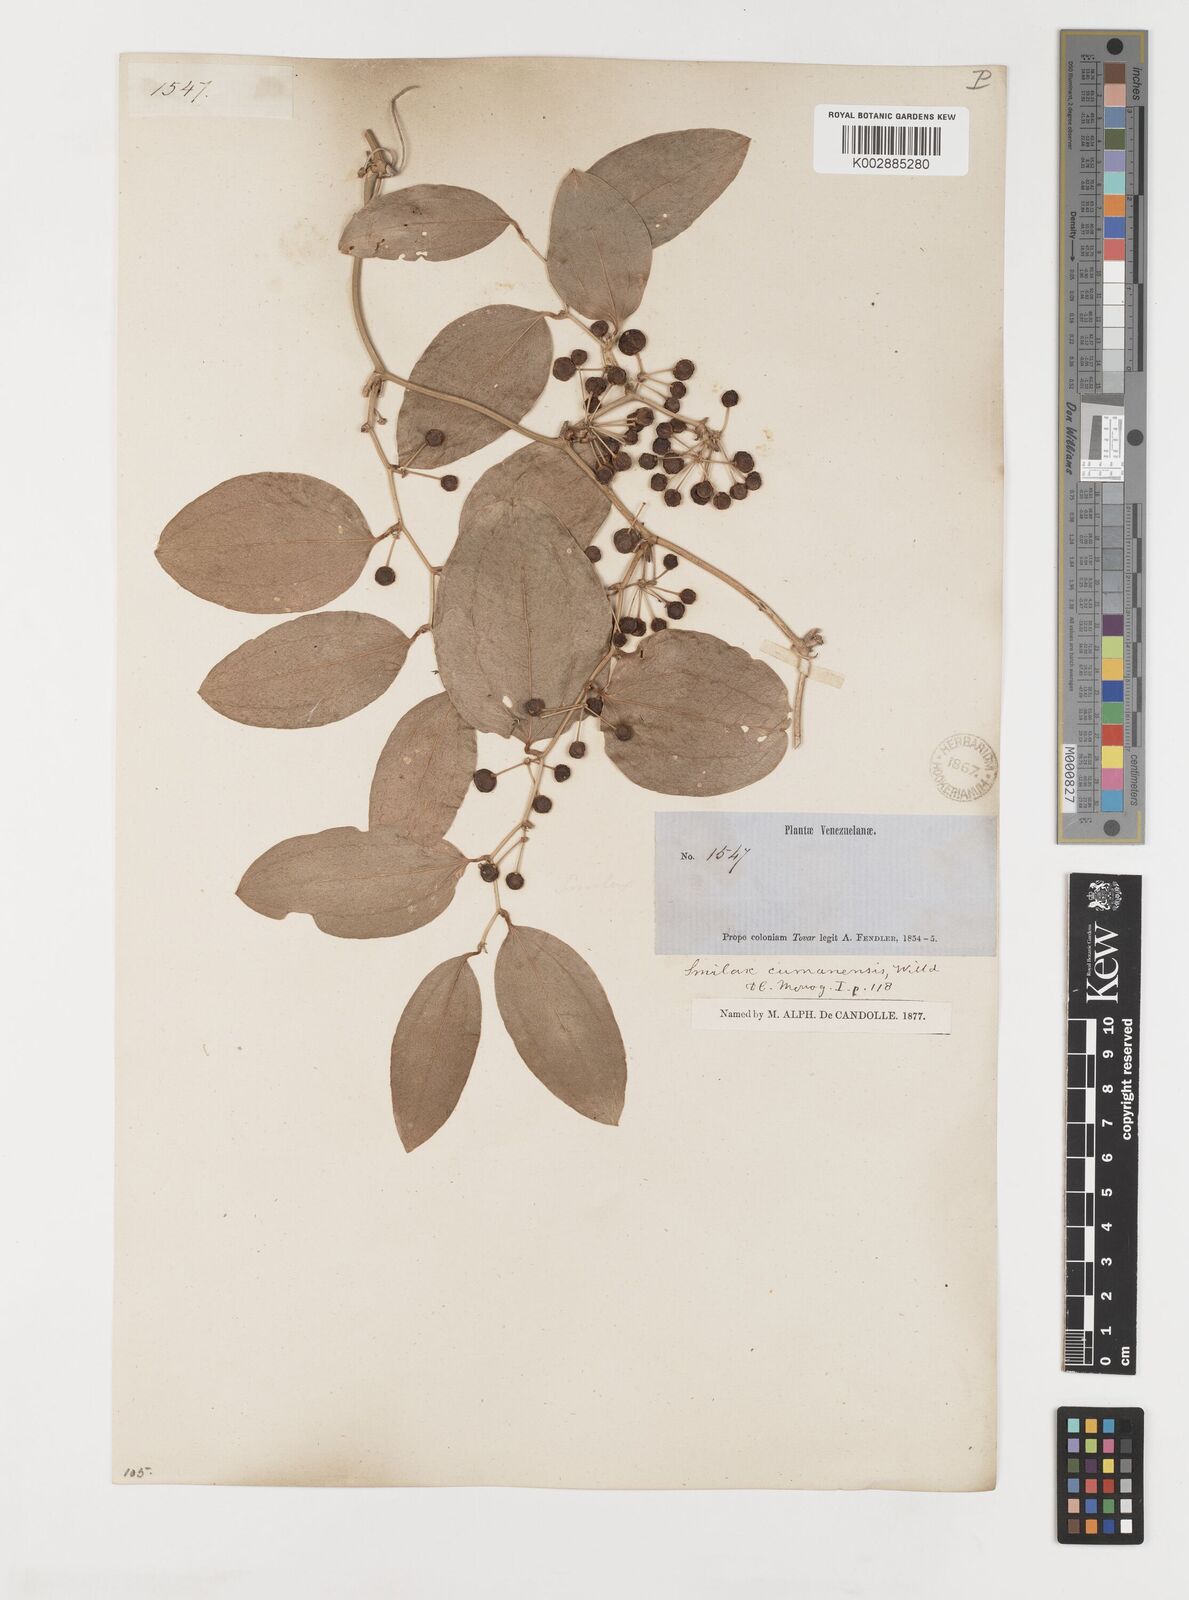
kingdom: Plantae
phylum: Tracheophyta
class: Liliopsida
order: Liliales
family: Smilacaceae
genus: Smilax
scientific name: Smilax oblongata
